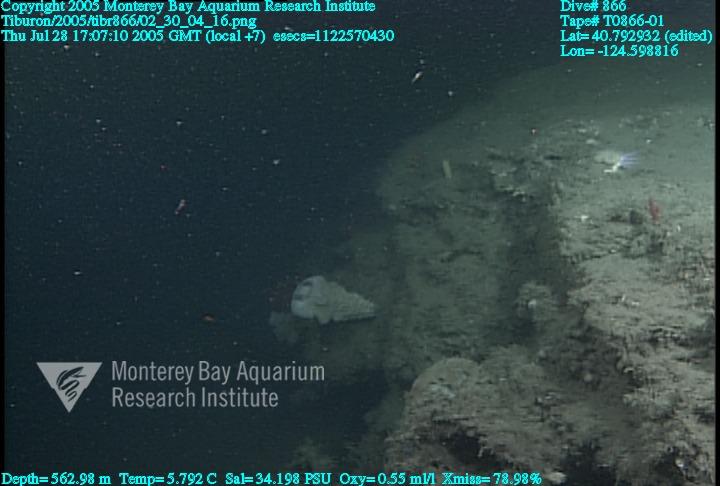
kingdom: Animalia
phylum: Porifera
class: Hexactinellida
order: Sceptrulophora
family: Aphrocallistidae
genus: Heterochone
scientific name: Heterochone calyx
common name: Fingered goblet glass sponge
